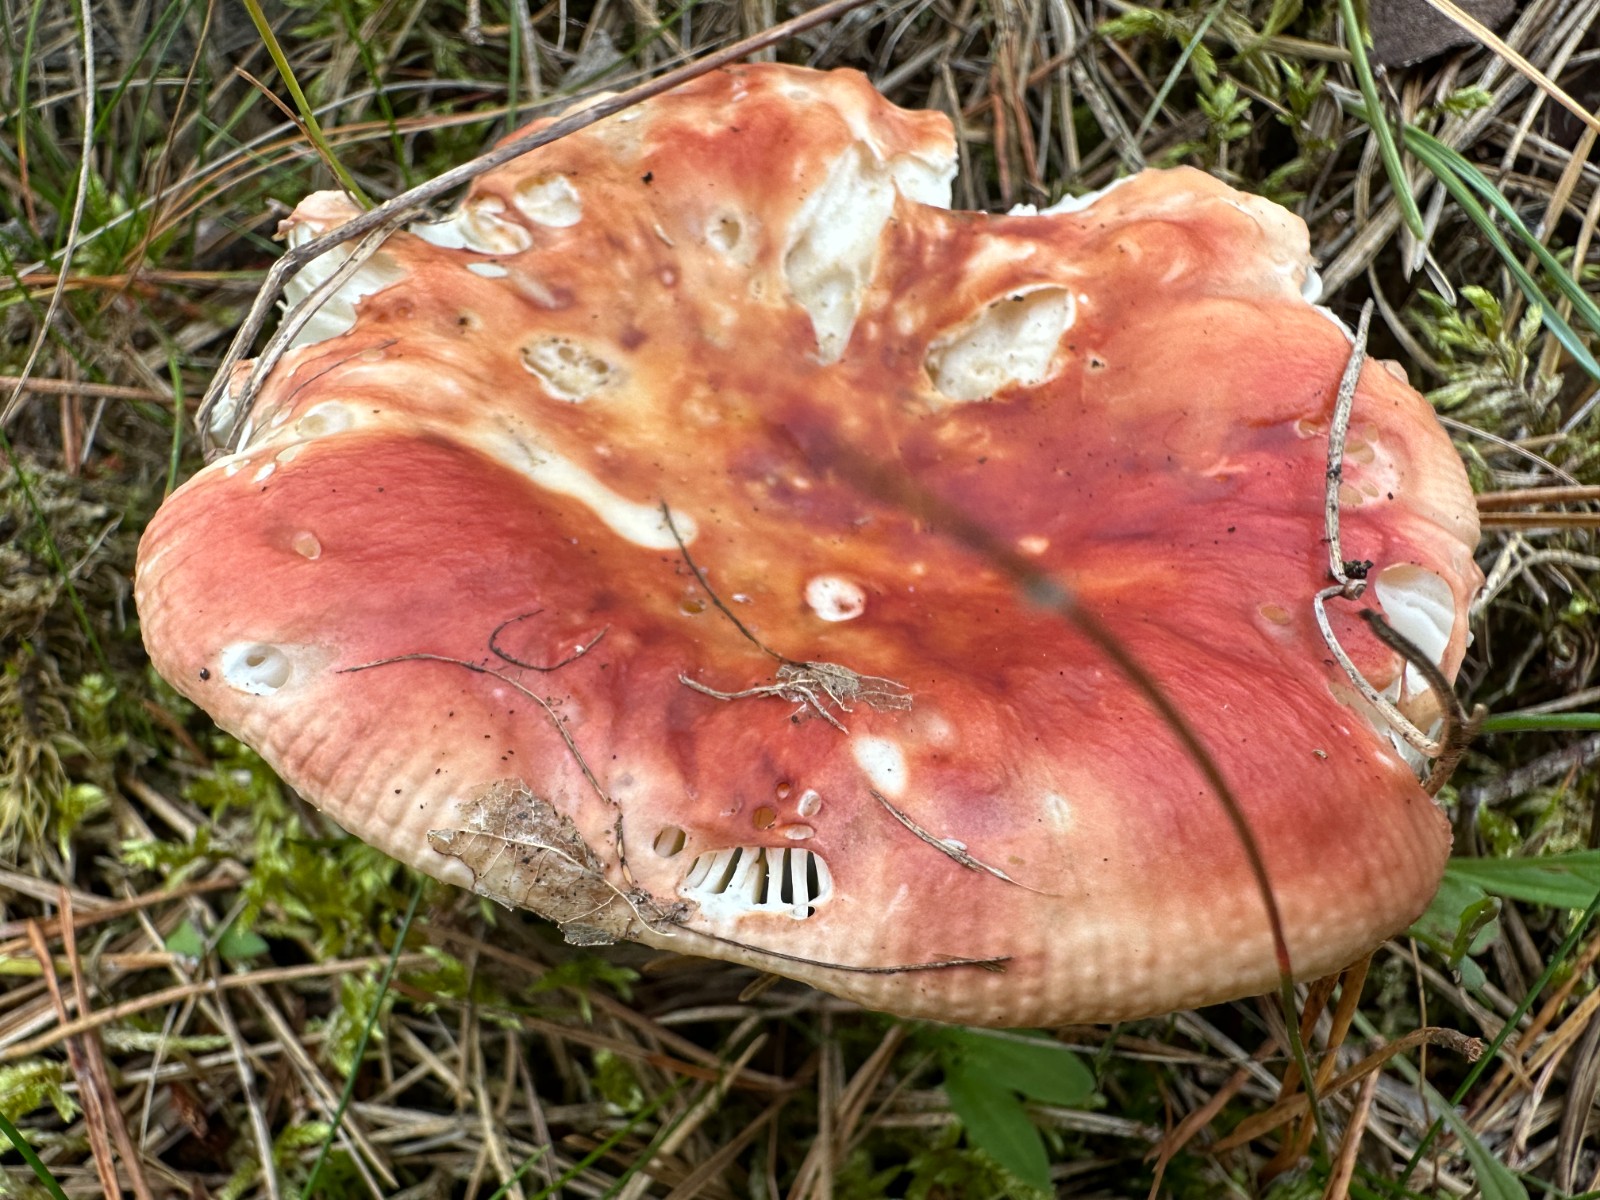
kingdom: Fungi
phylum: Basidiomycota
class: Agaricomycetes
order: Russulales
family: Russulaceae
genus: Russula
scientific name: Russula paludosa
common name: prægtig skørhat
